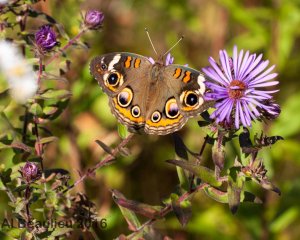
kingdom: Animalia
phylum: Arthropoda
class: Insecta
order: Lepidoptera
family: Nymphalidae
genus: Junonia
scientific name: Junonia coenia
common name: Common Buckeye
